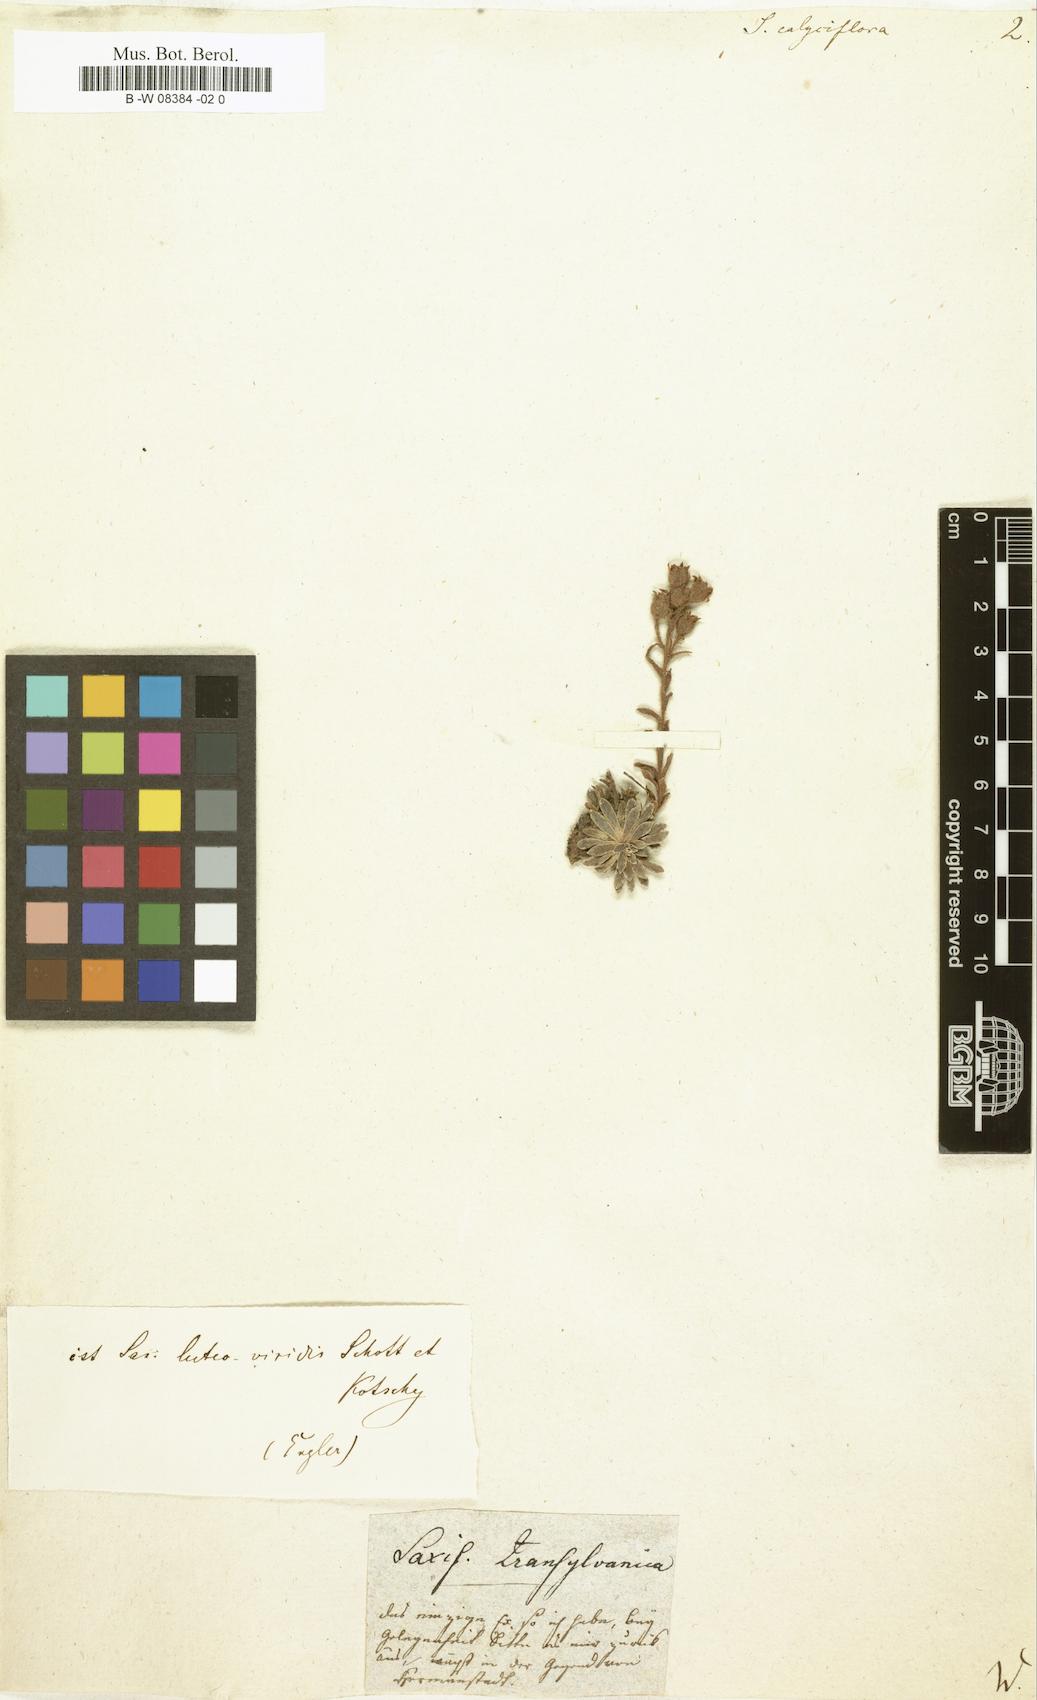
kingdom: Plantae
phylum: Tracheophyta
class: Magnoliopsida
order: Saxifragales
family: Saxifragaceae
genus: Saxifraga
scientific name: Saxifraga media
